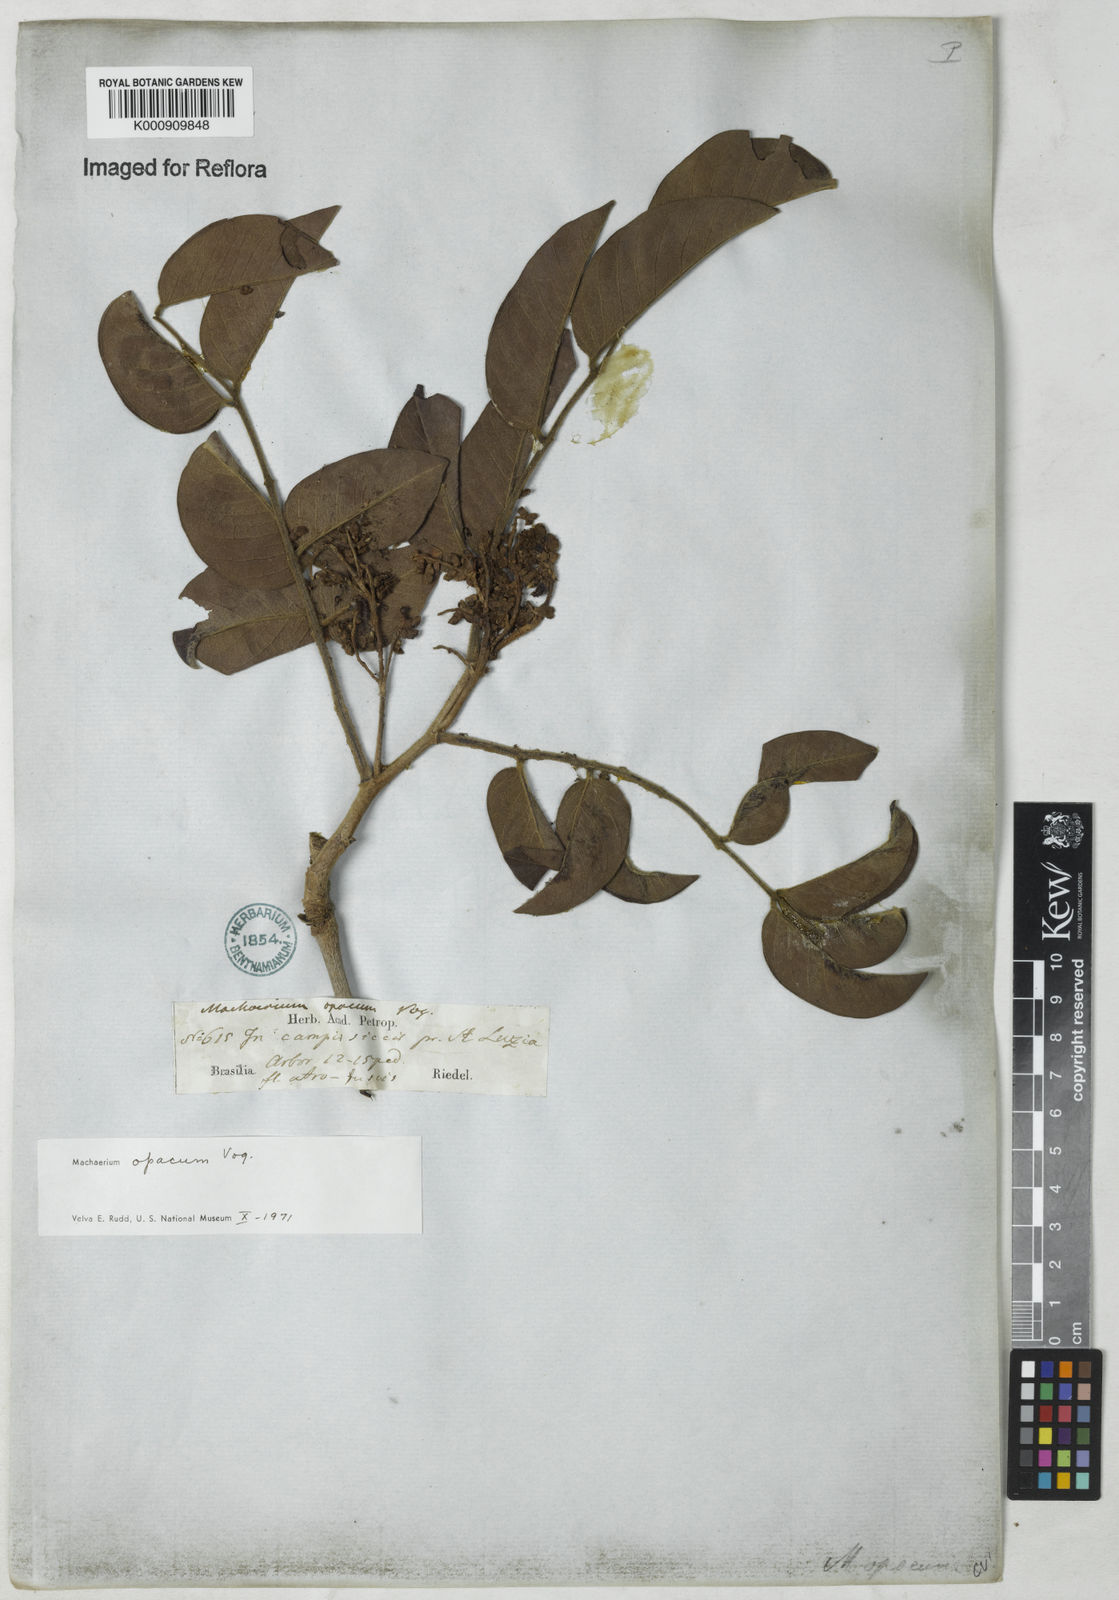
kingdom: Plantae
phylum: Tracheophyta
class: Magnoliopsida
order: Fabales
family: Fabaceae
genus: Machaerium
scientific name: Machaerium opacum
